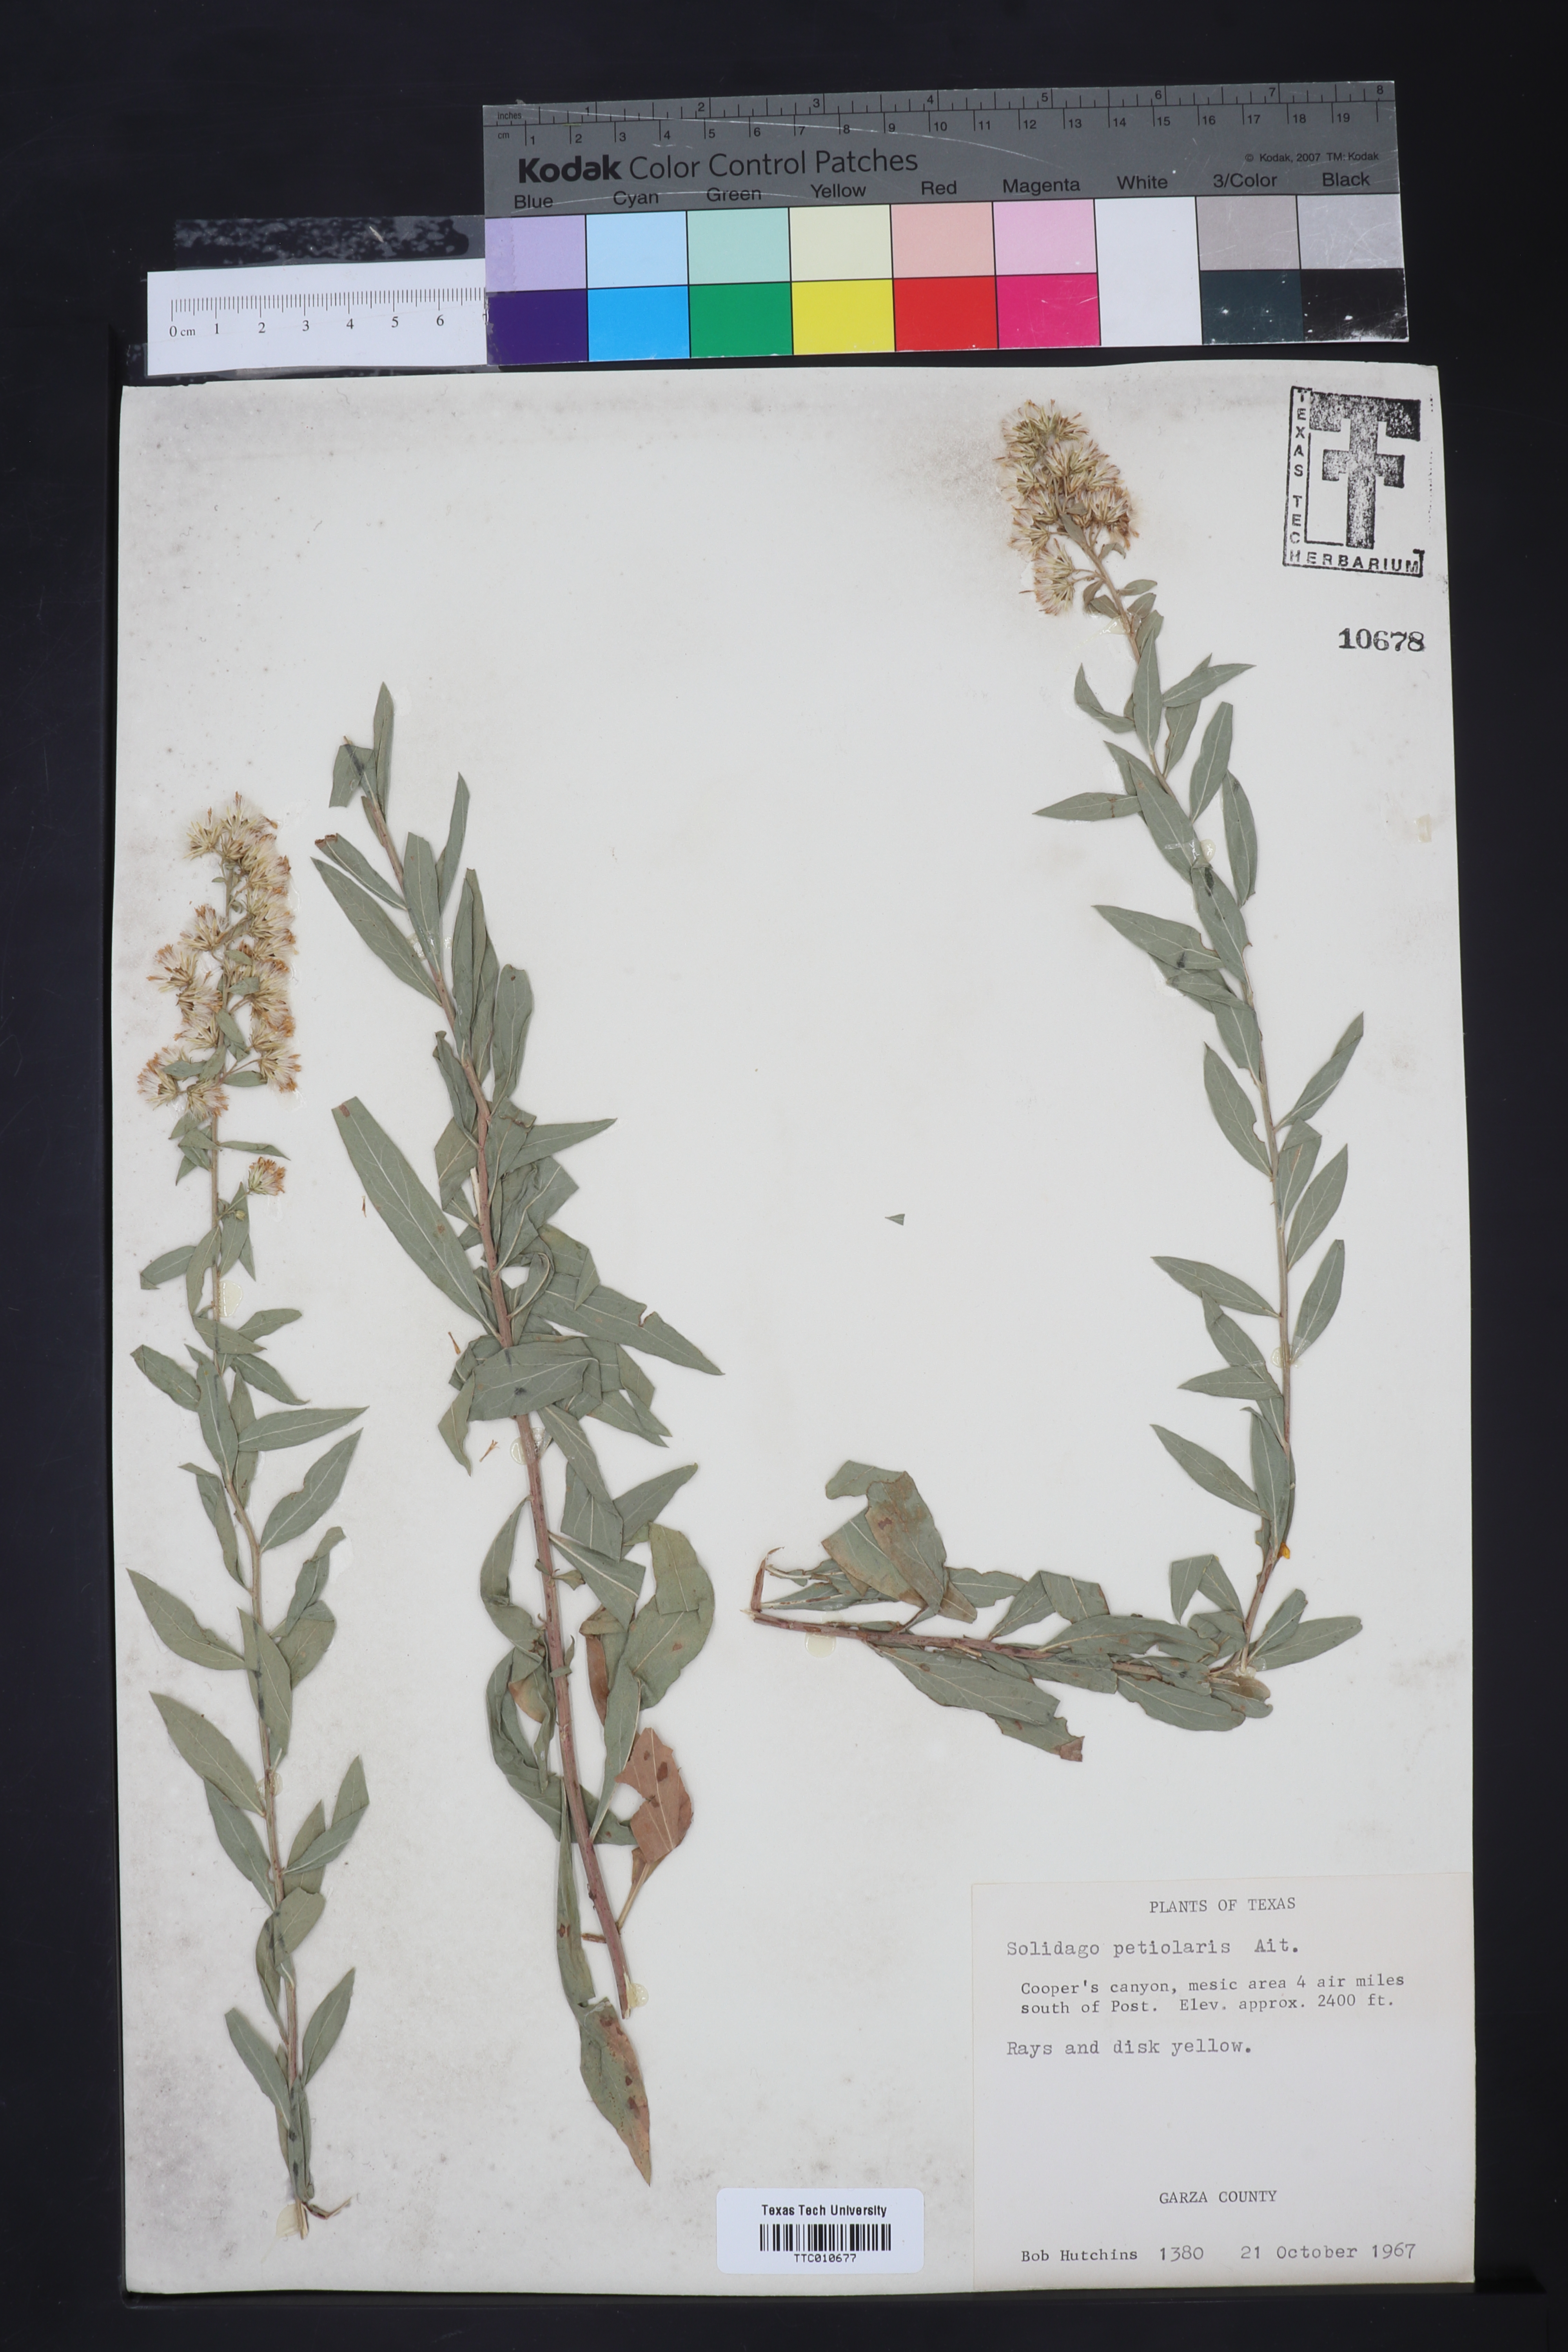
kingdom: Plantae
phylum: Tracheophyta
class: Magnoliopsida
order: Asterales
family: Asteraceae
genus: Solidago
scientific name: Solidago petiolaris
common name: Downy ragged goldenrod
